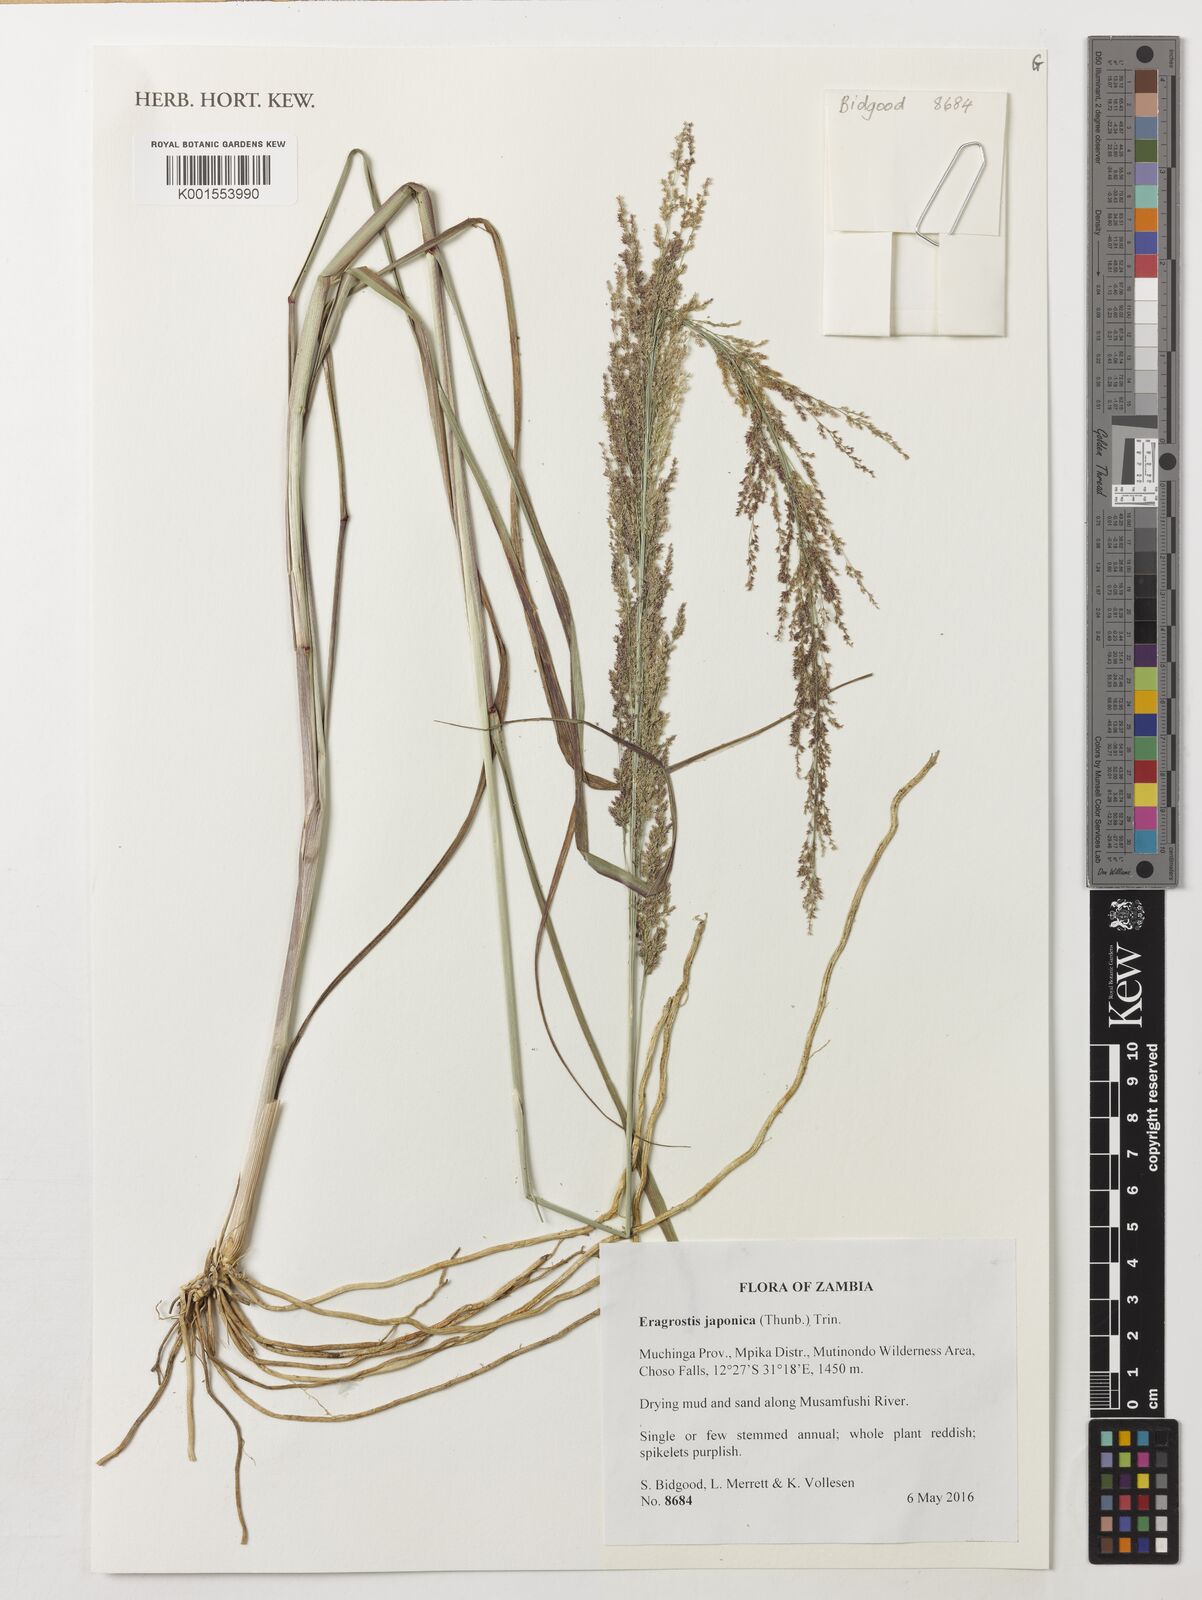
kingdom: Plantae
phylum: Tracheophyta
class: Liliopsida
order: Poales
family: Poaceae
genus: Eragrostis
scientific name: Eragrostis japonica
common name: Pond lovegrass
